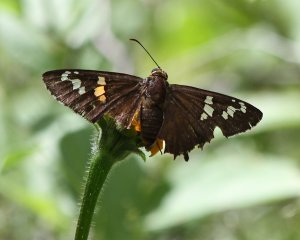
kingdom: Animalia
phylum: Arthropoda
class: Insecta
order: Lepidoptera
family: Hesperiidae
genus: Pyrrhopyge
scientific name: Pyrrhopyge araxes
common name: Dull Firetip
